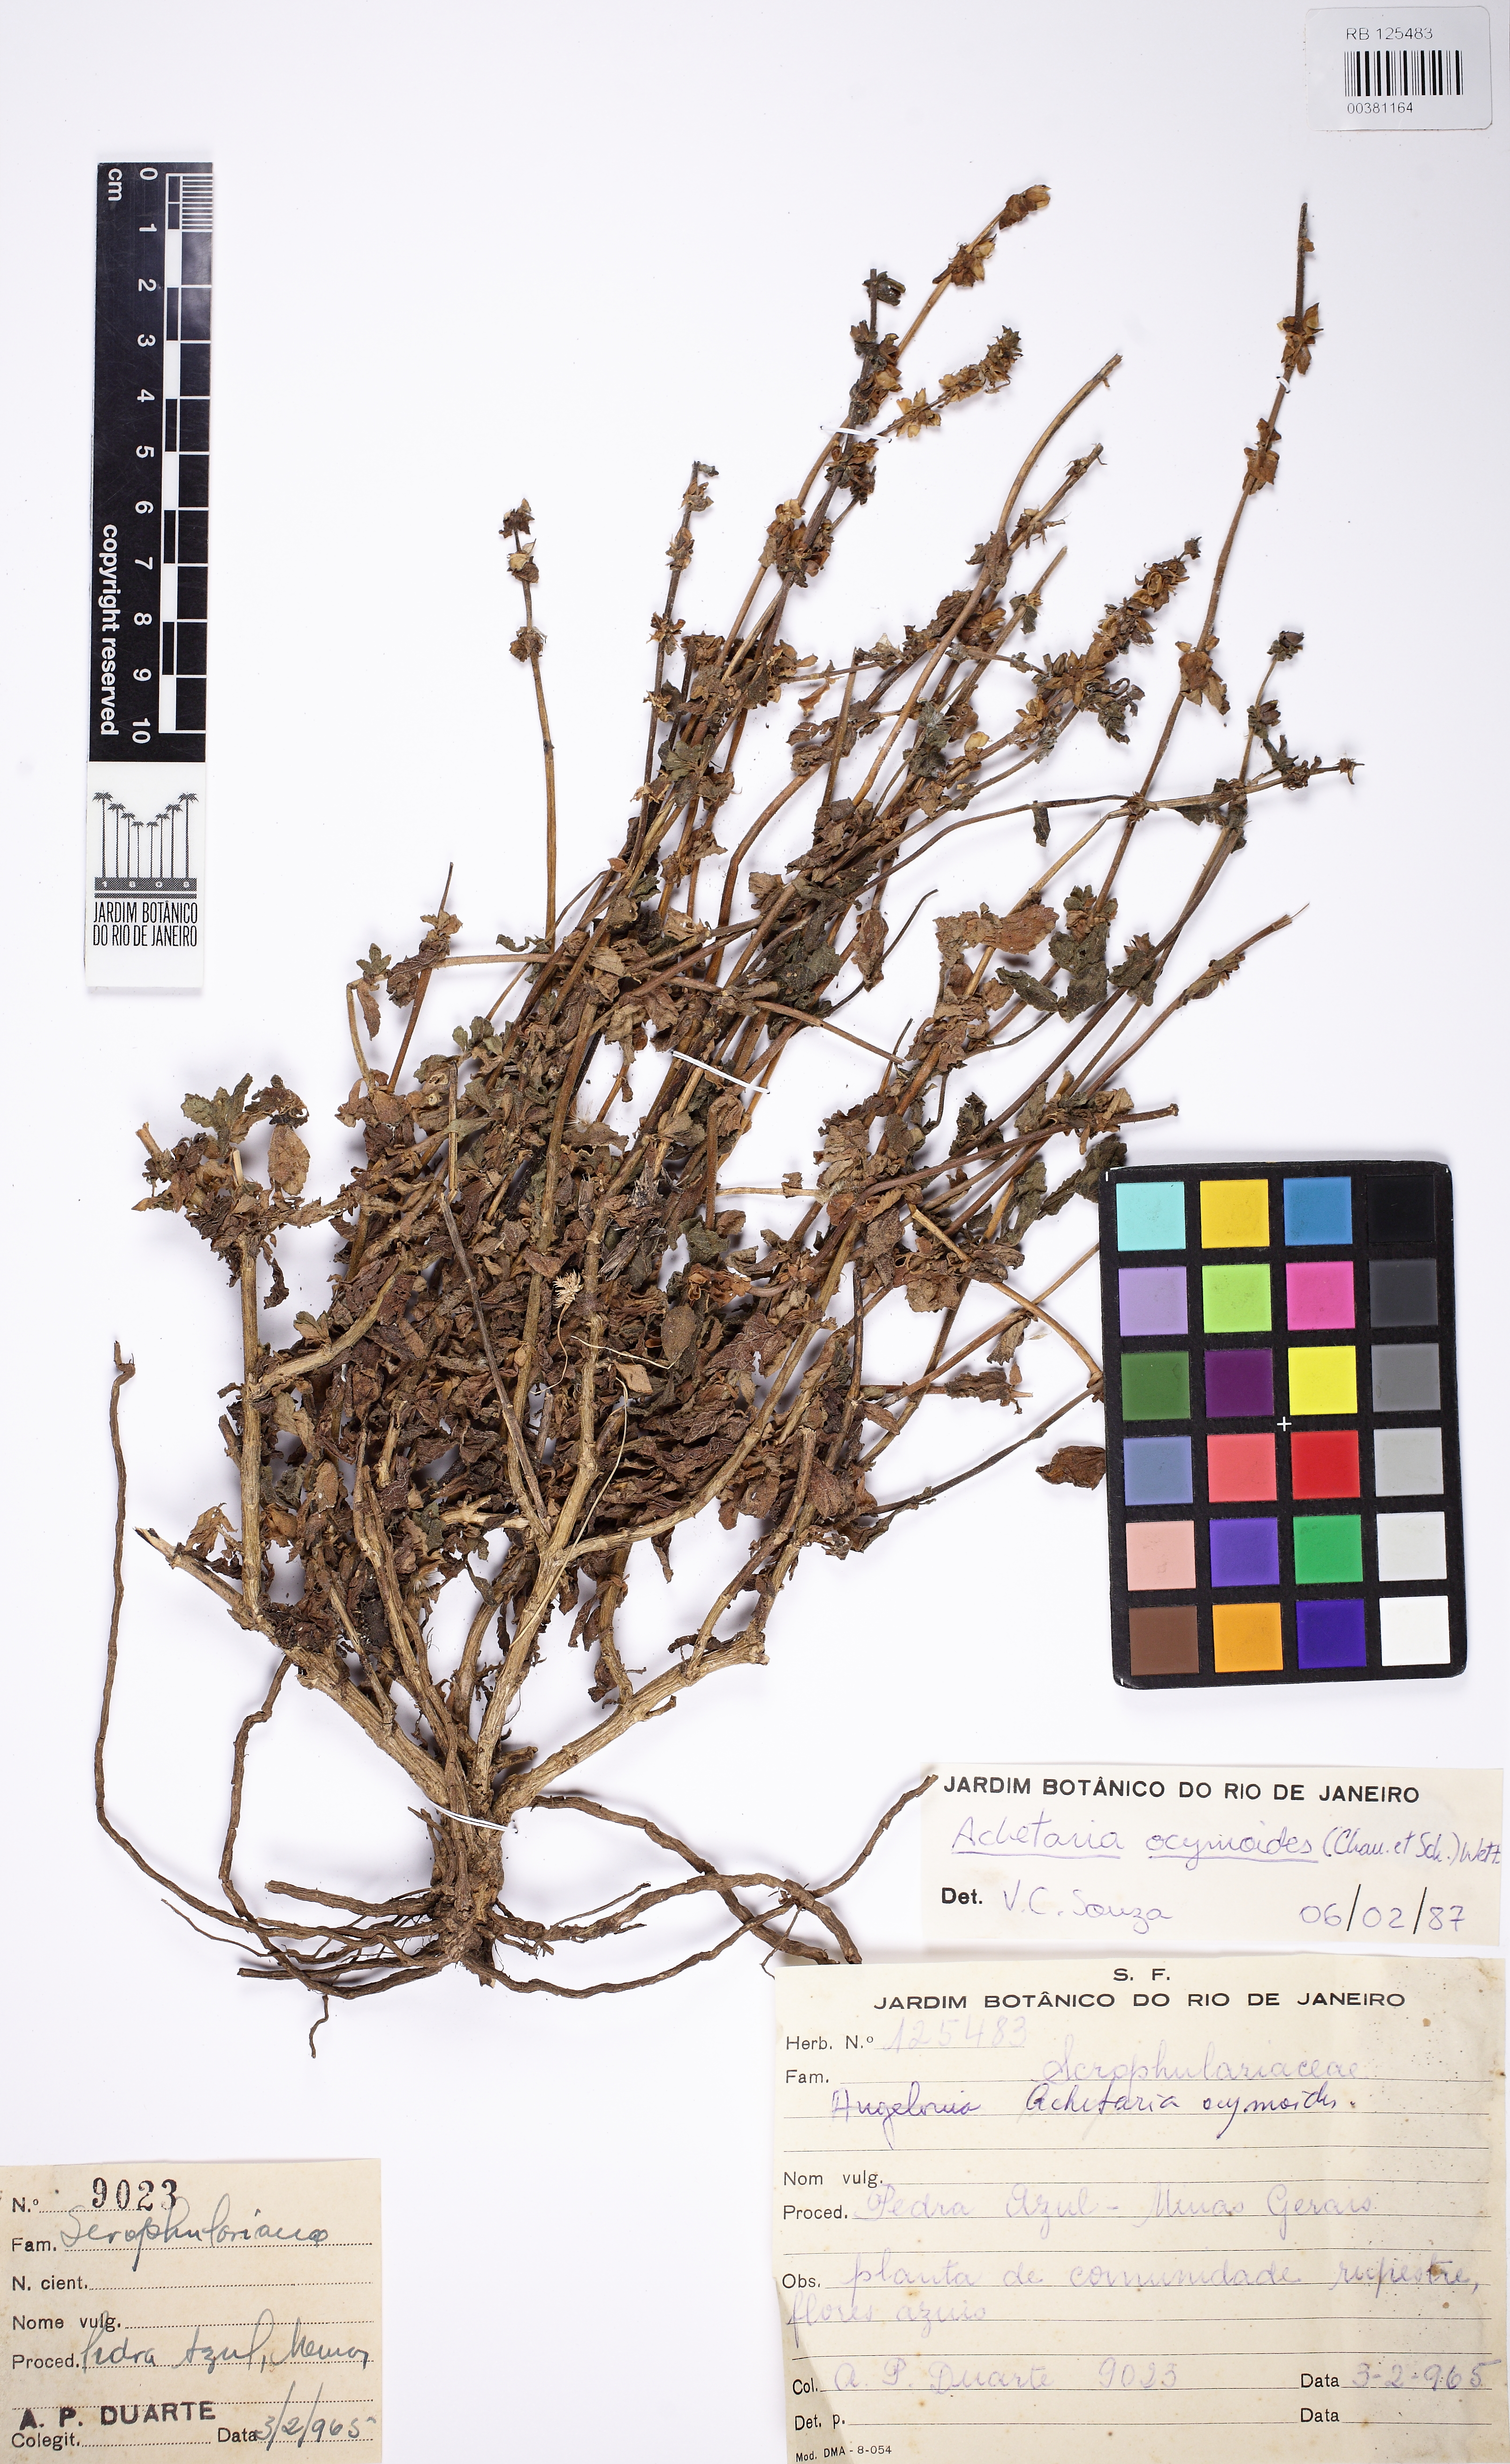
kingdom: Plantae
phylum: Tracheophyta
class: Magnoliopsida
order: Lamiales
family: Plantaginaceae
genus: Matourea
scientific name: Matourea crenata
